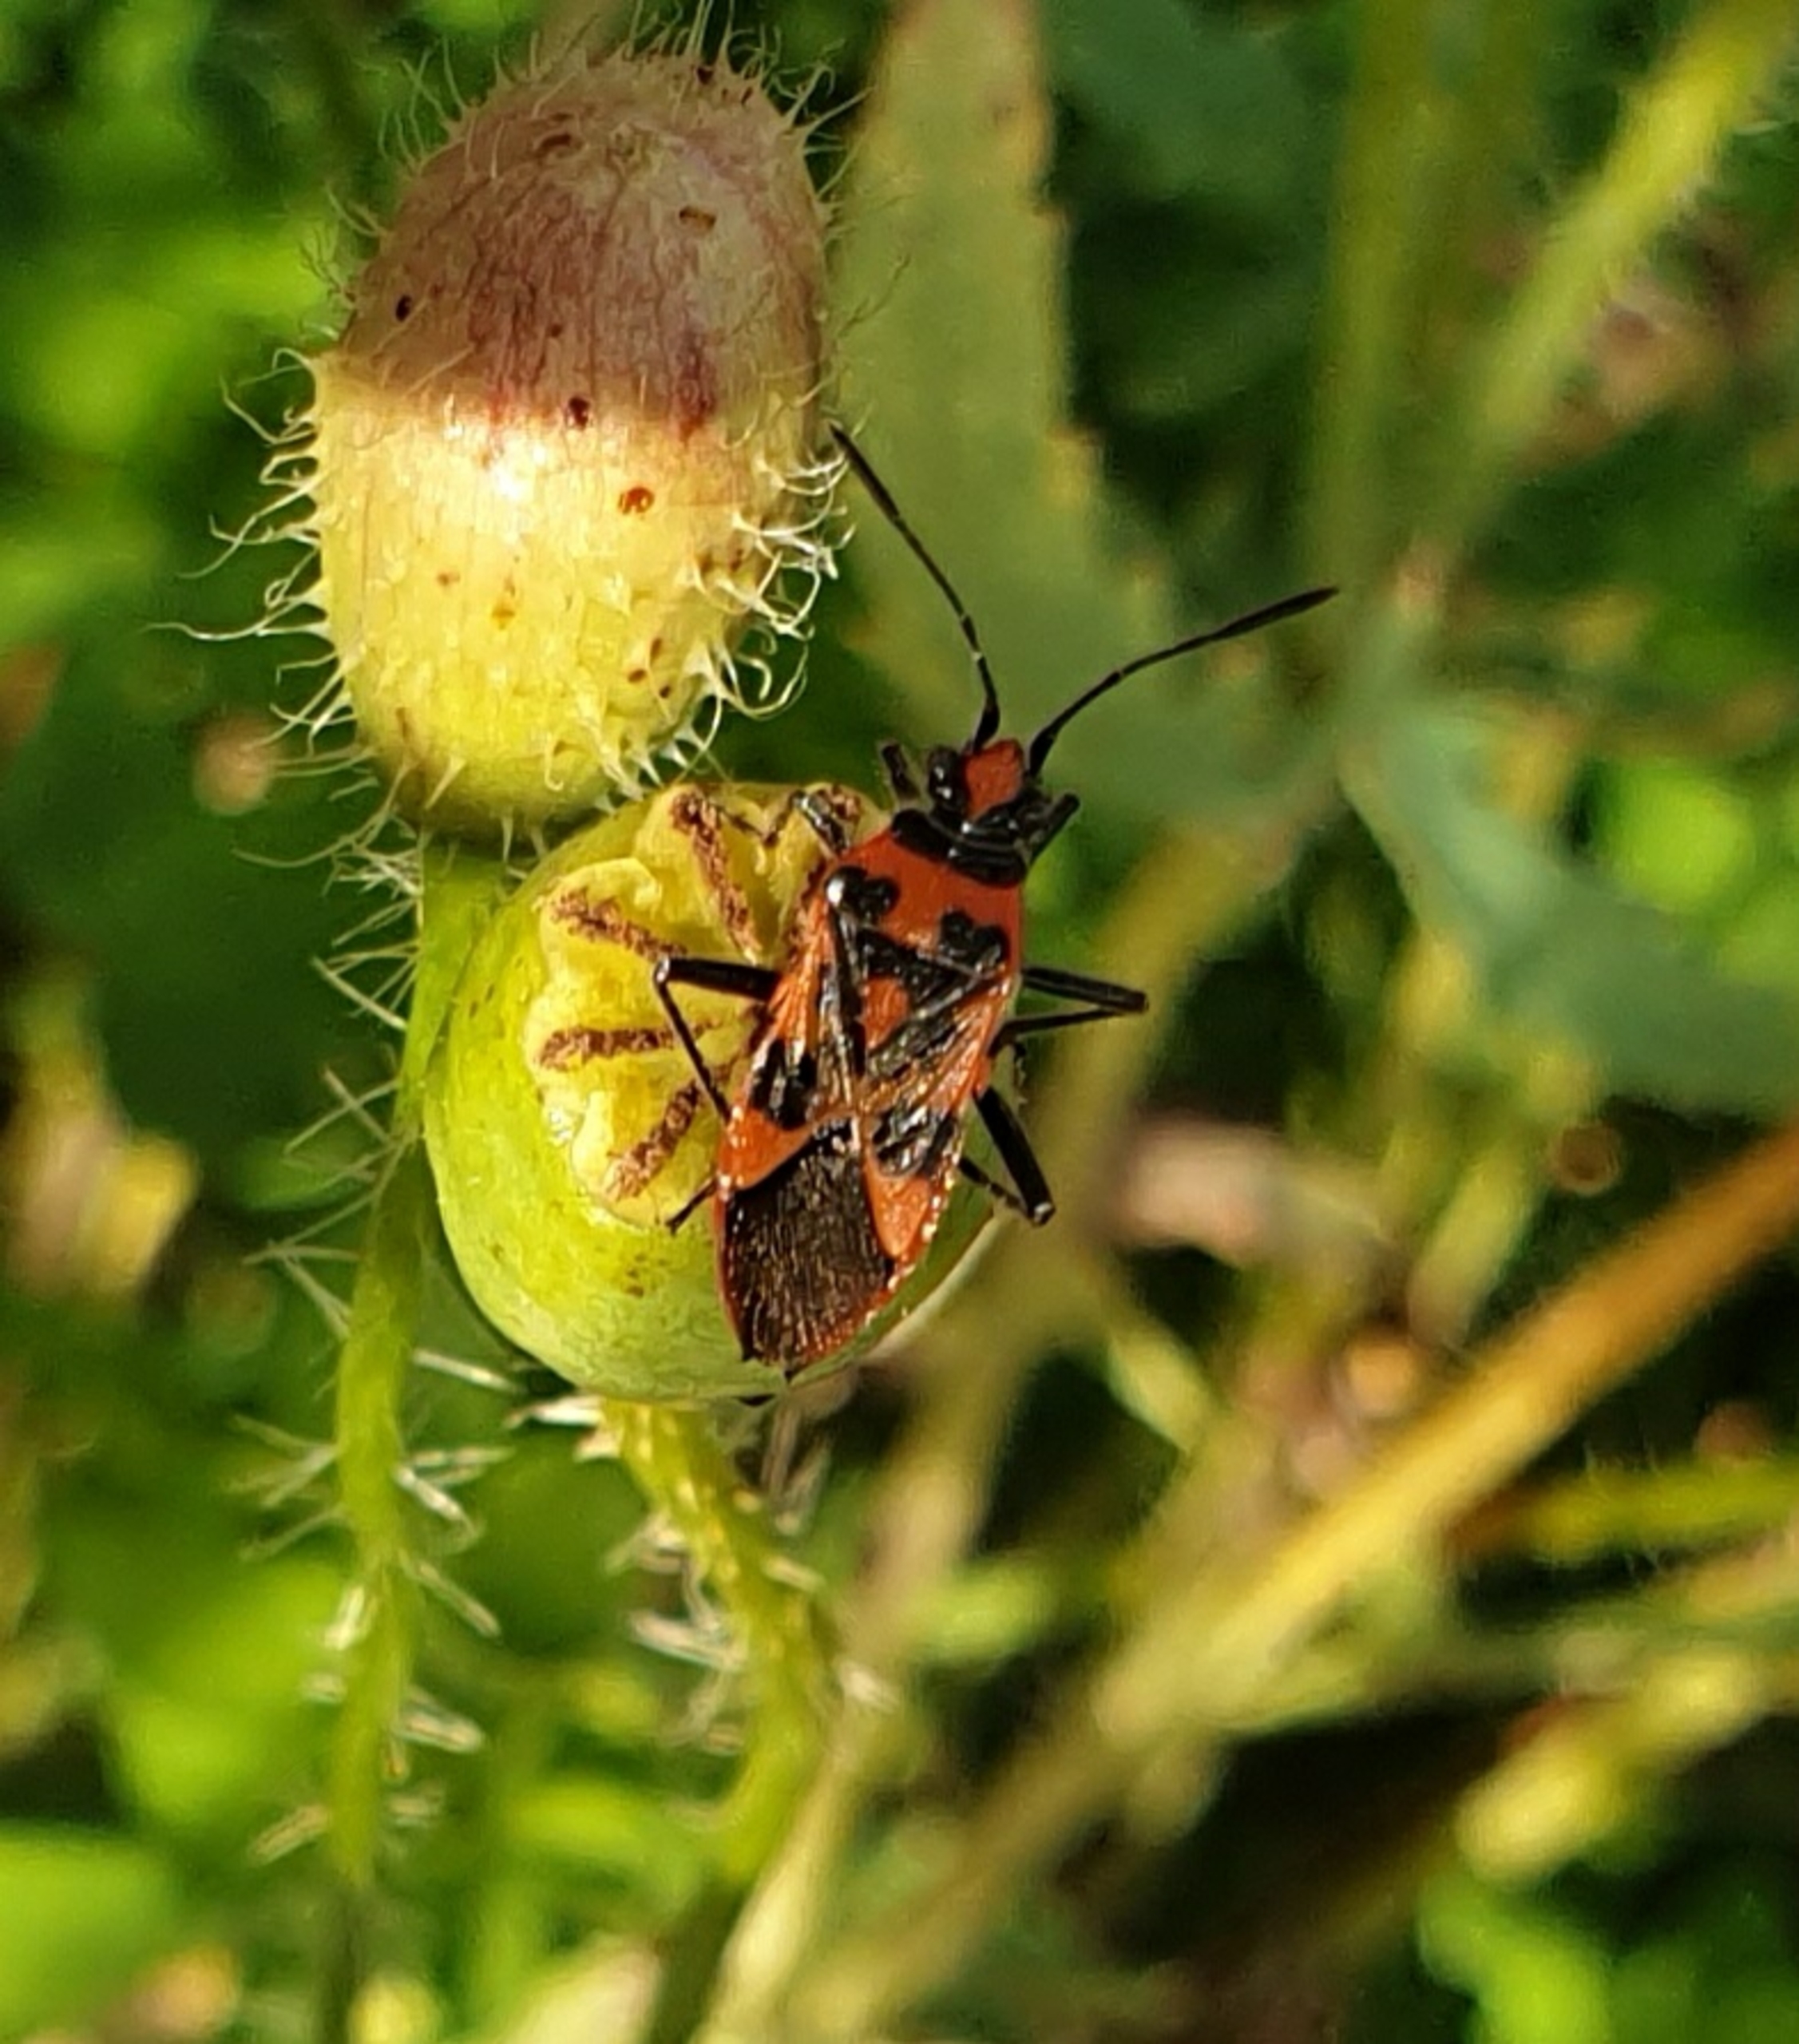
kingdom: Animalia
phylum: Arthropoda
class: Insecta
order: Hemiptera
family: Rhopalidae
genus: Corizus
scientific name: Corizus hyoscyami
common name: Rød kanttæge
